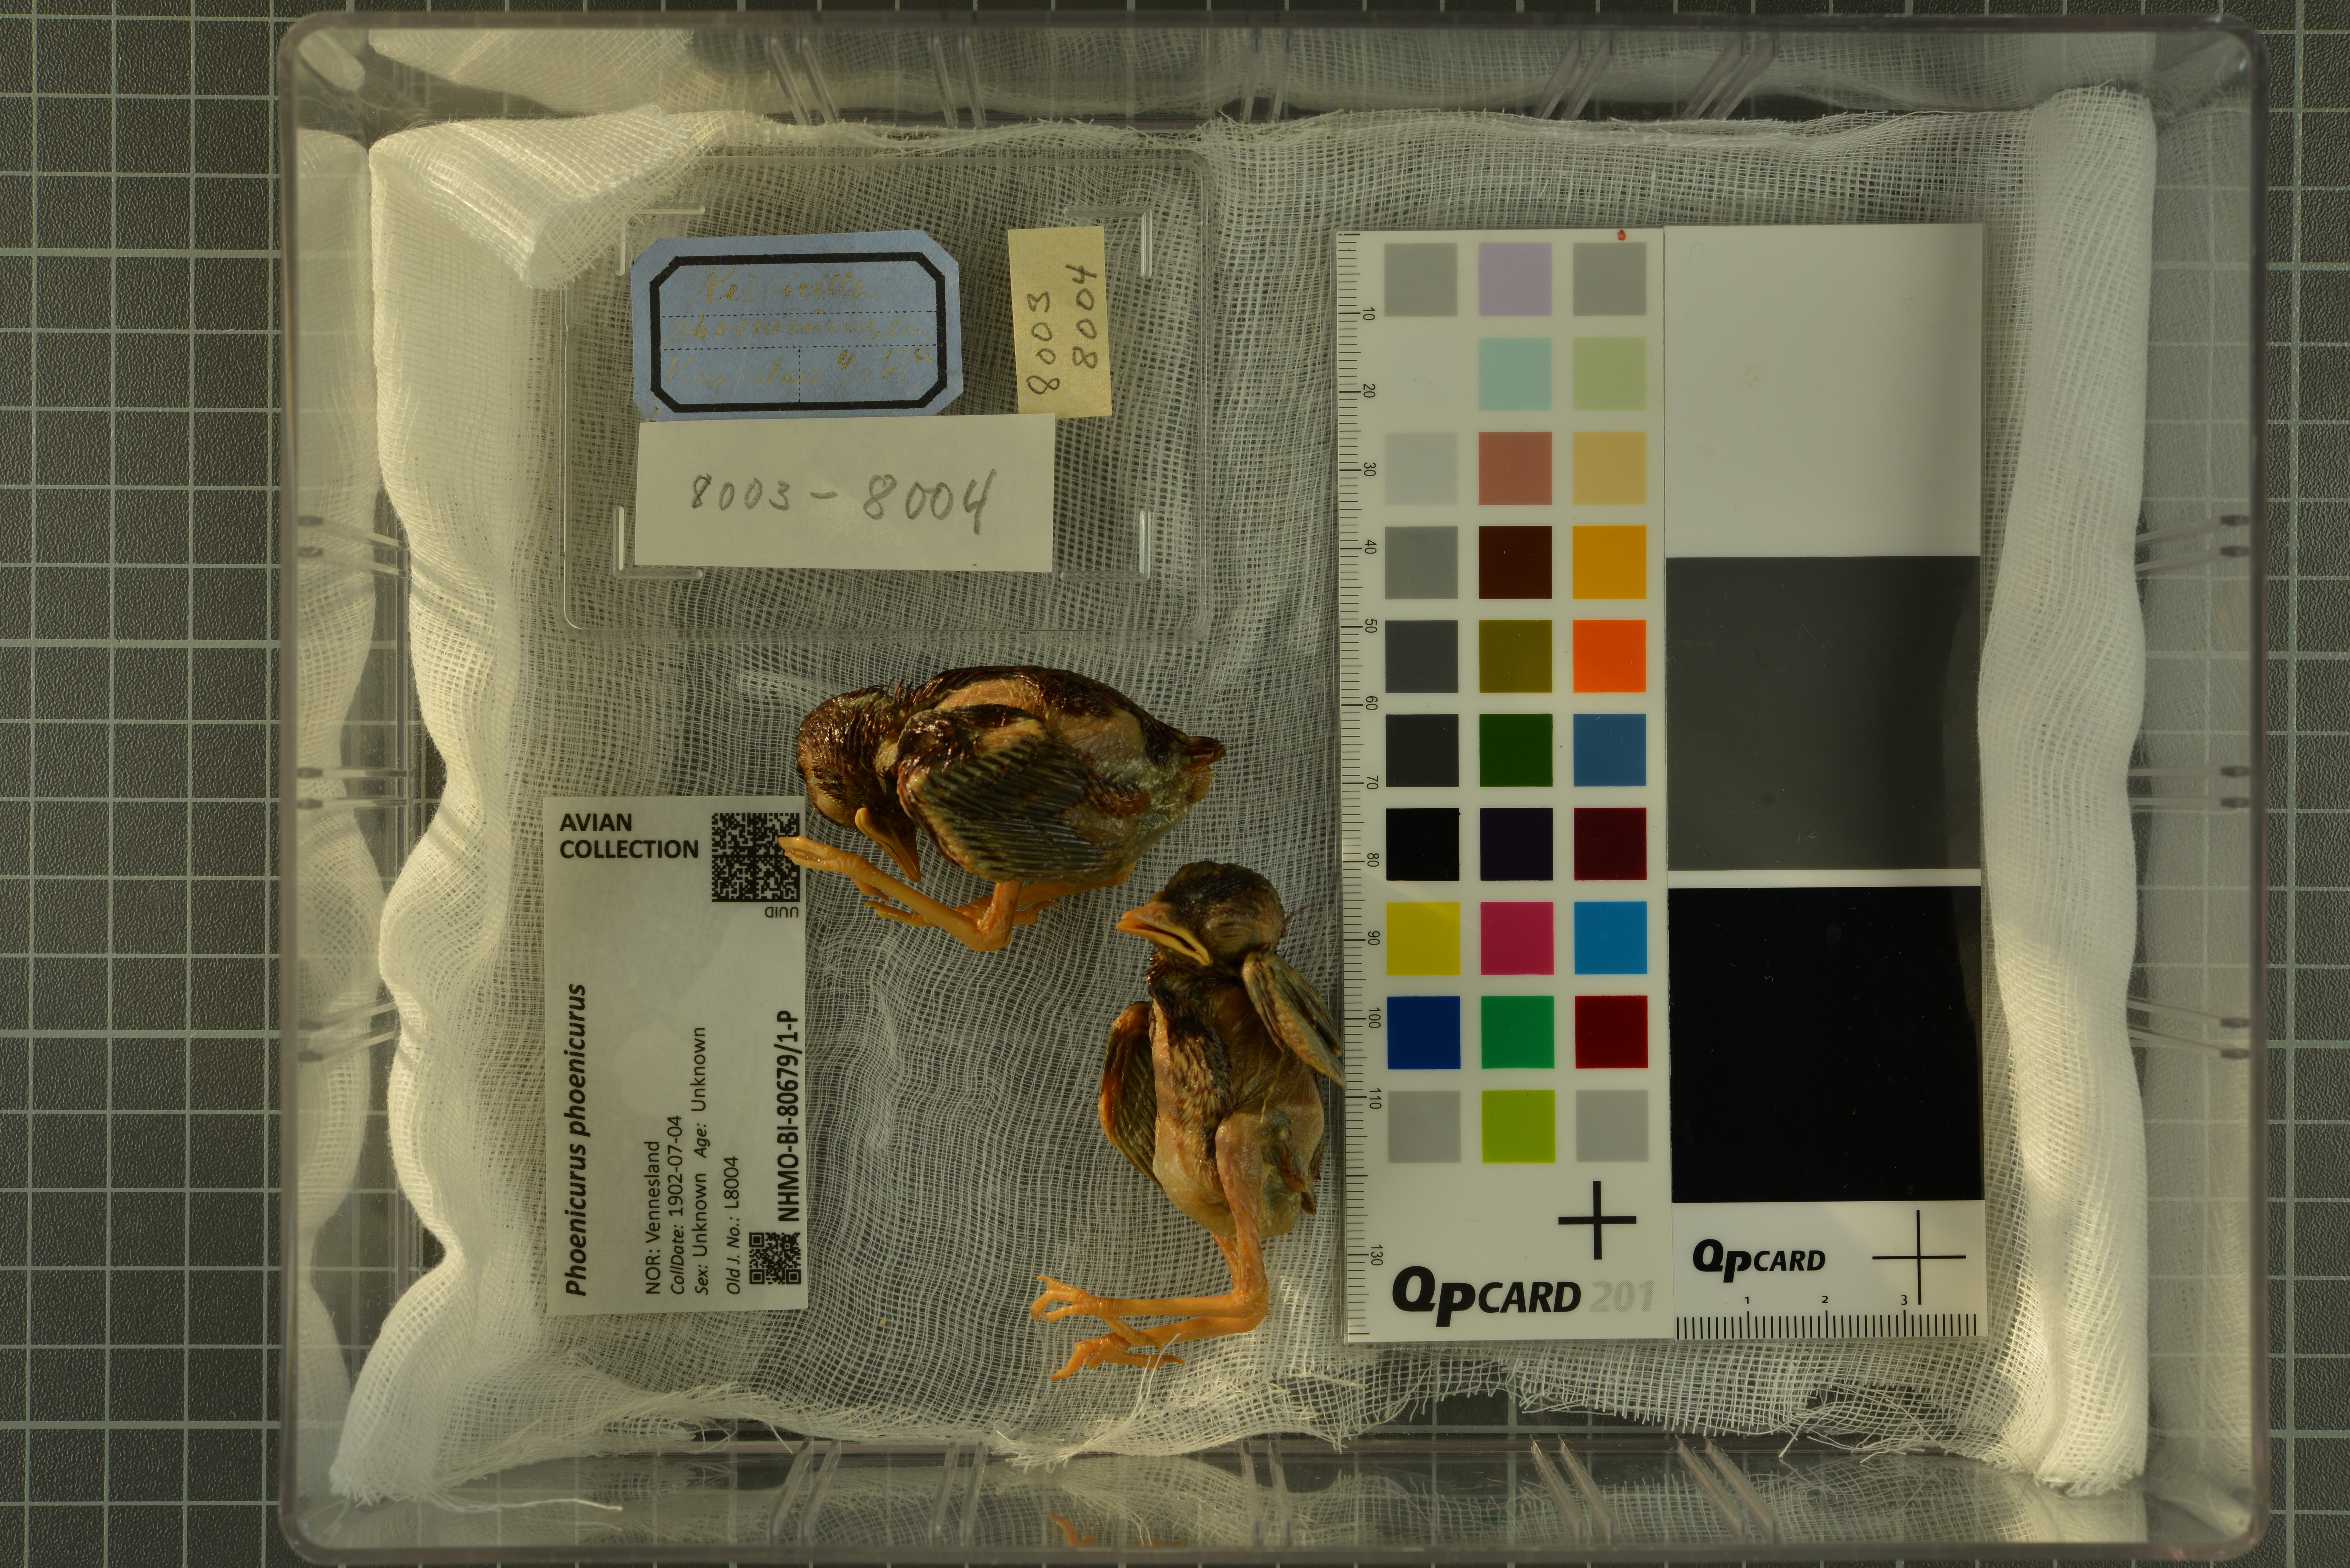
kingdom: Animalia
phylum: Chordata
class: Aves
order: Passeriformes
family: Muscicapidae
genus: Phoenicurus
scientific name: Phoenicurus phoenicurus
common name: Common redstart
